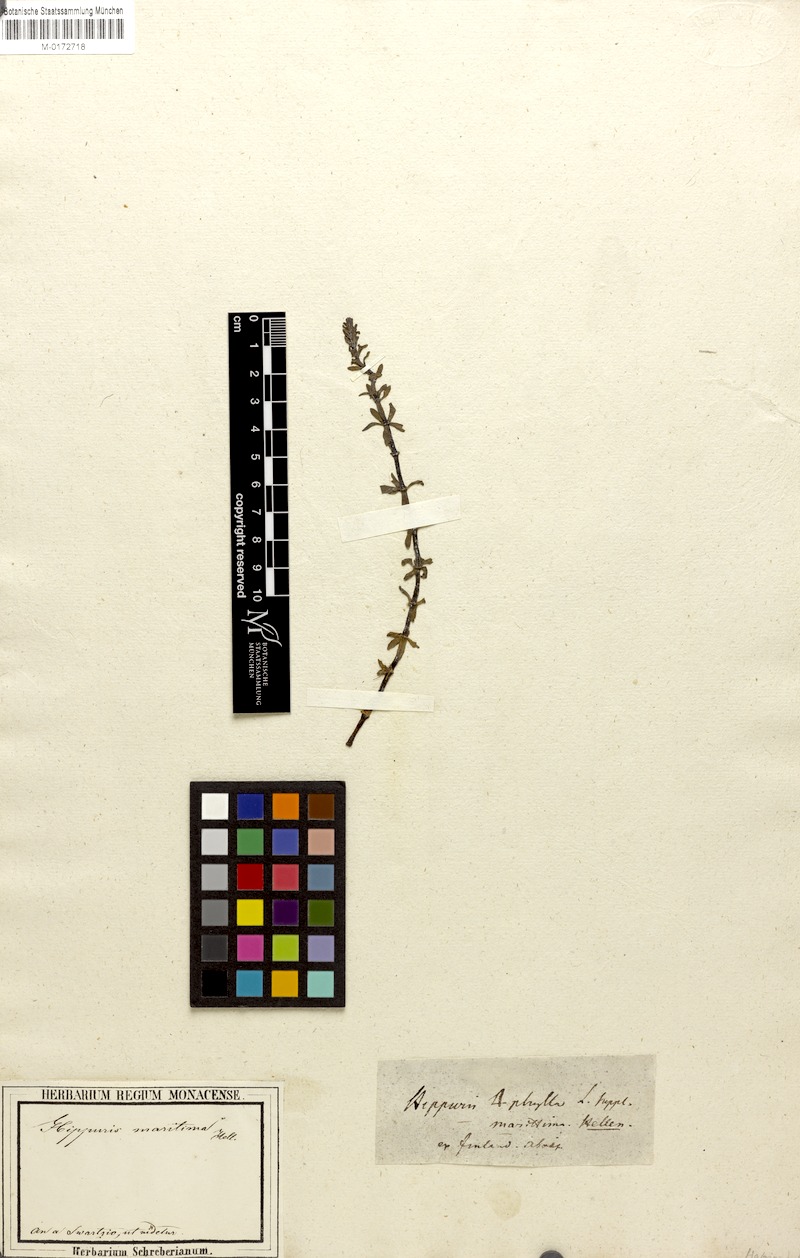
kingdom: Plantae
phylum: Tracheophyta
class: Magnoliopsida
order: Lamiales
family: Plantaginaceae
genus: Hippuris
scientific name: Hippuris vulgaris
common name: Mare's-tail
